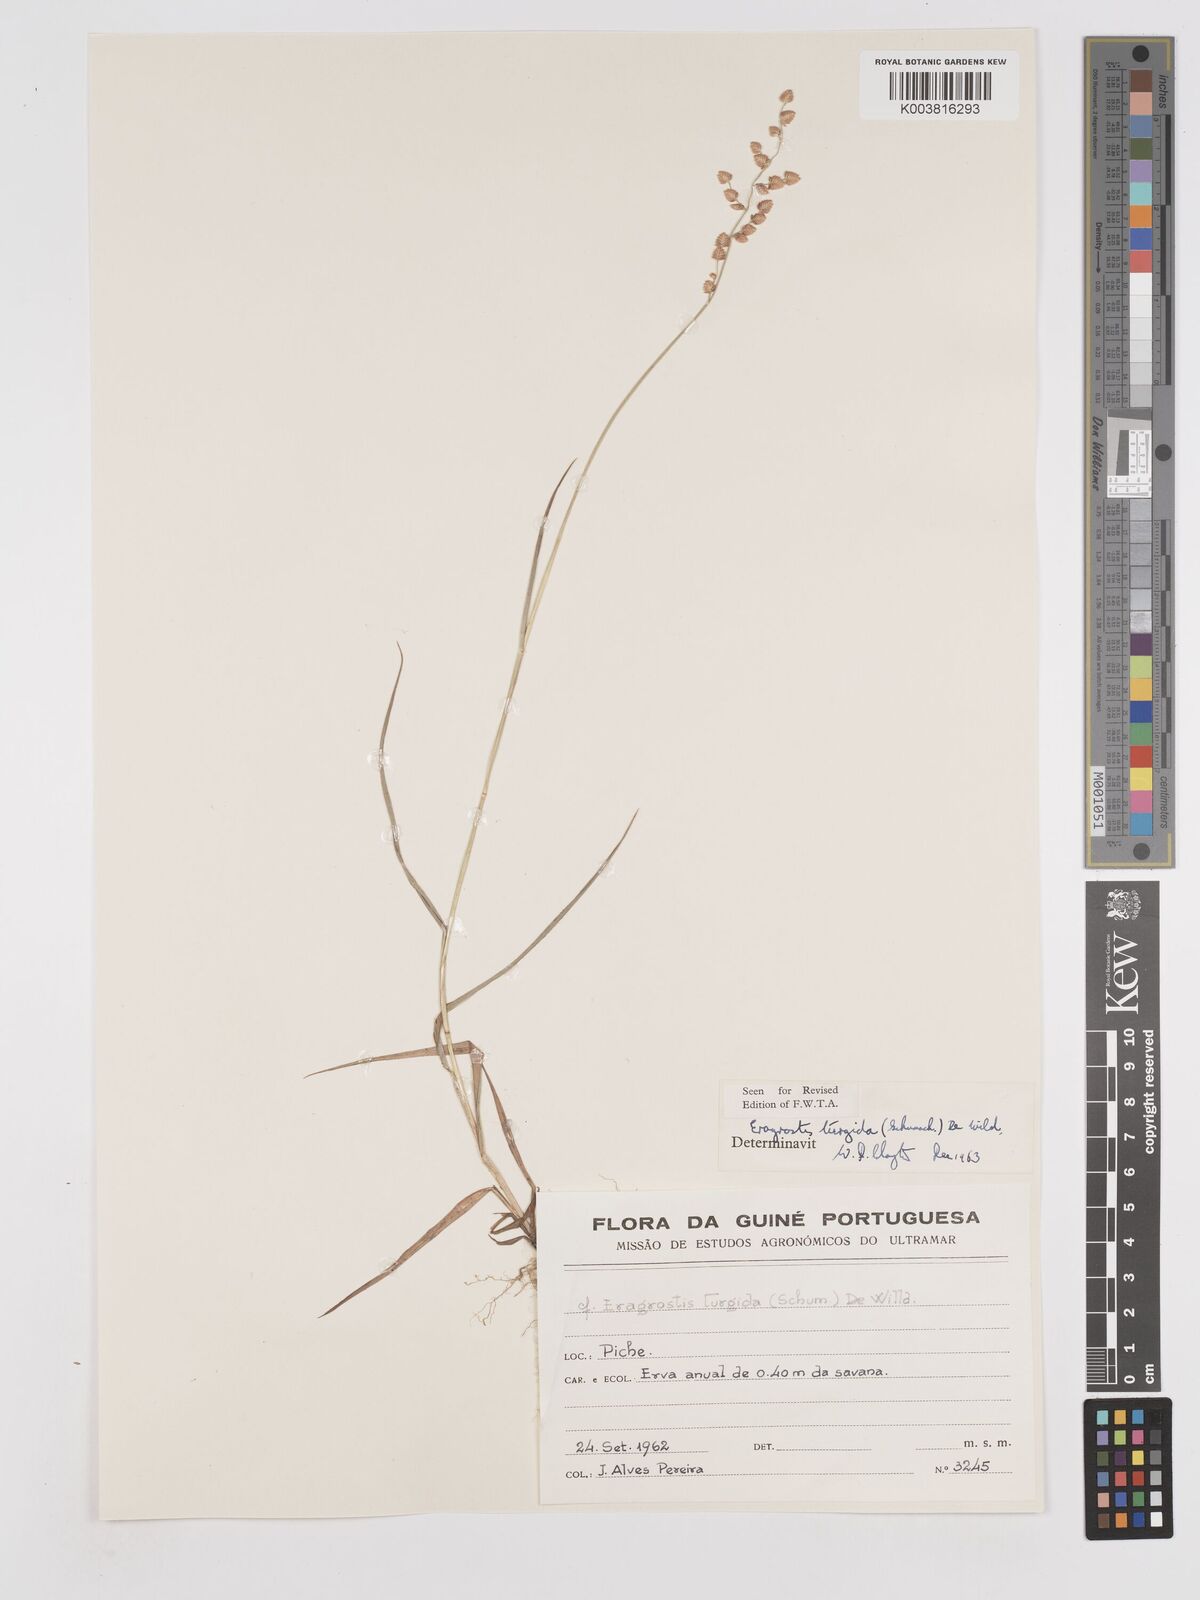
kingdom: Plantae
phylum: Tracheophyta
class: Liliopsida
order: Poales
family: Poaceae
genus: Eragrostis
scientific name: Eragrostis turgida
